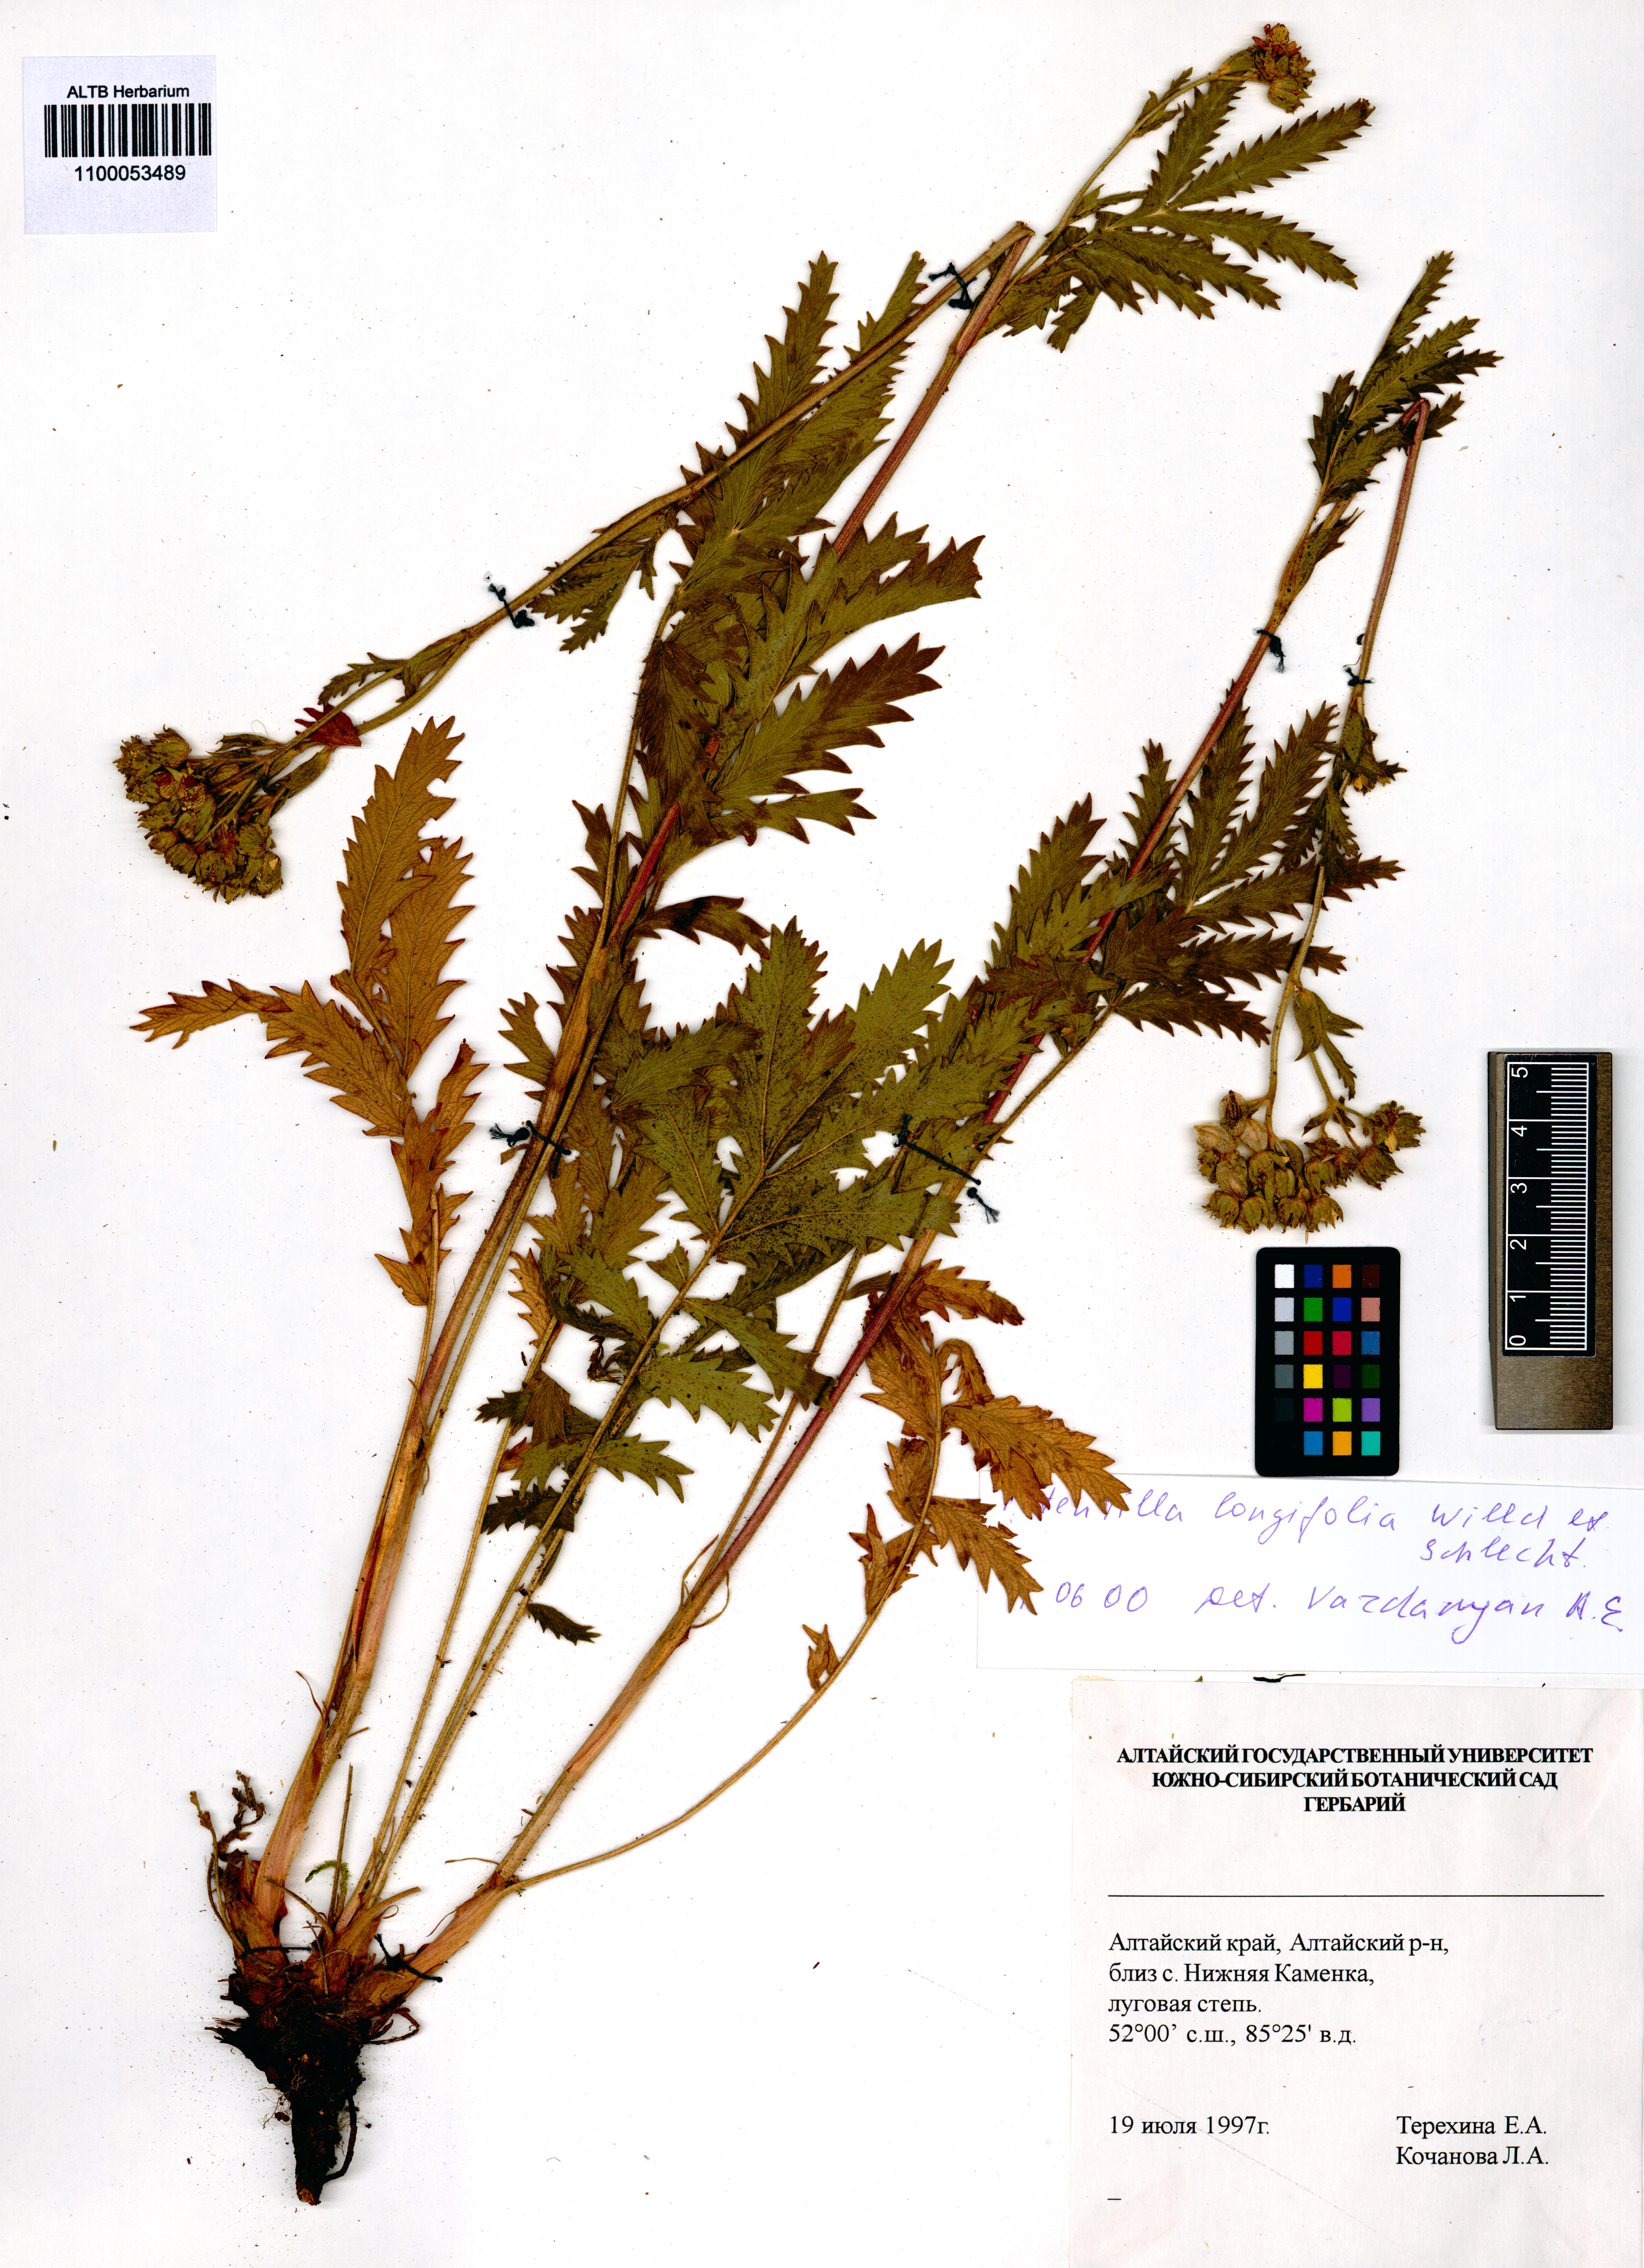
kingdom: Plantae
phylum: Tracheophyta
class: Magnoliopsida
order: Rosales
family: Rosaceae
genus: Potentilla
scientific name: Potentilla longifolia
